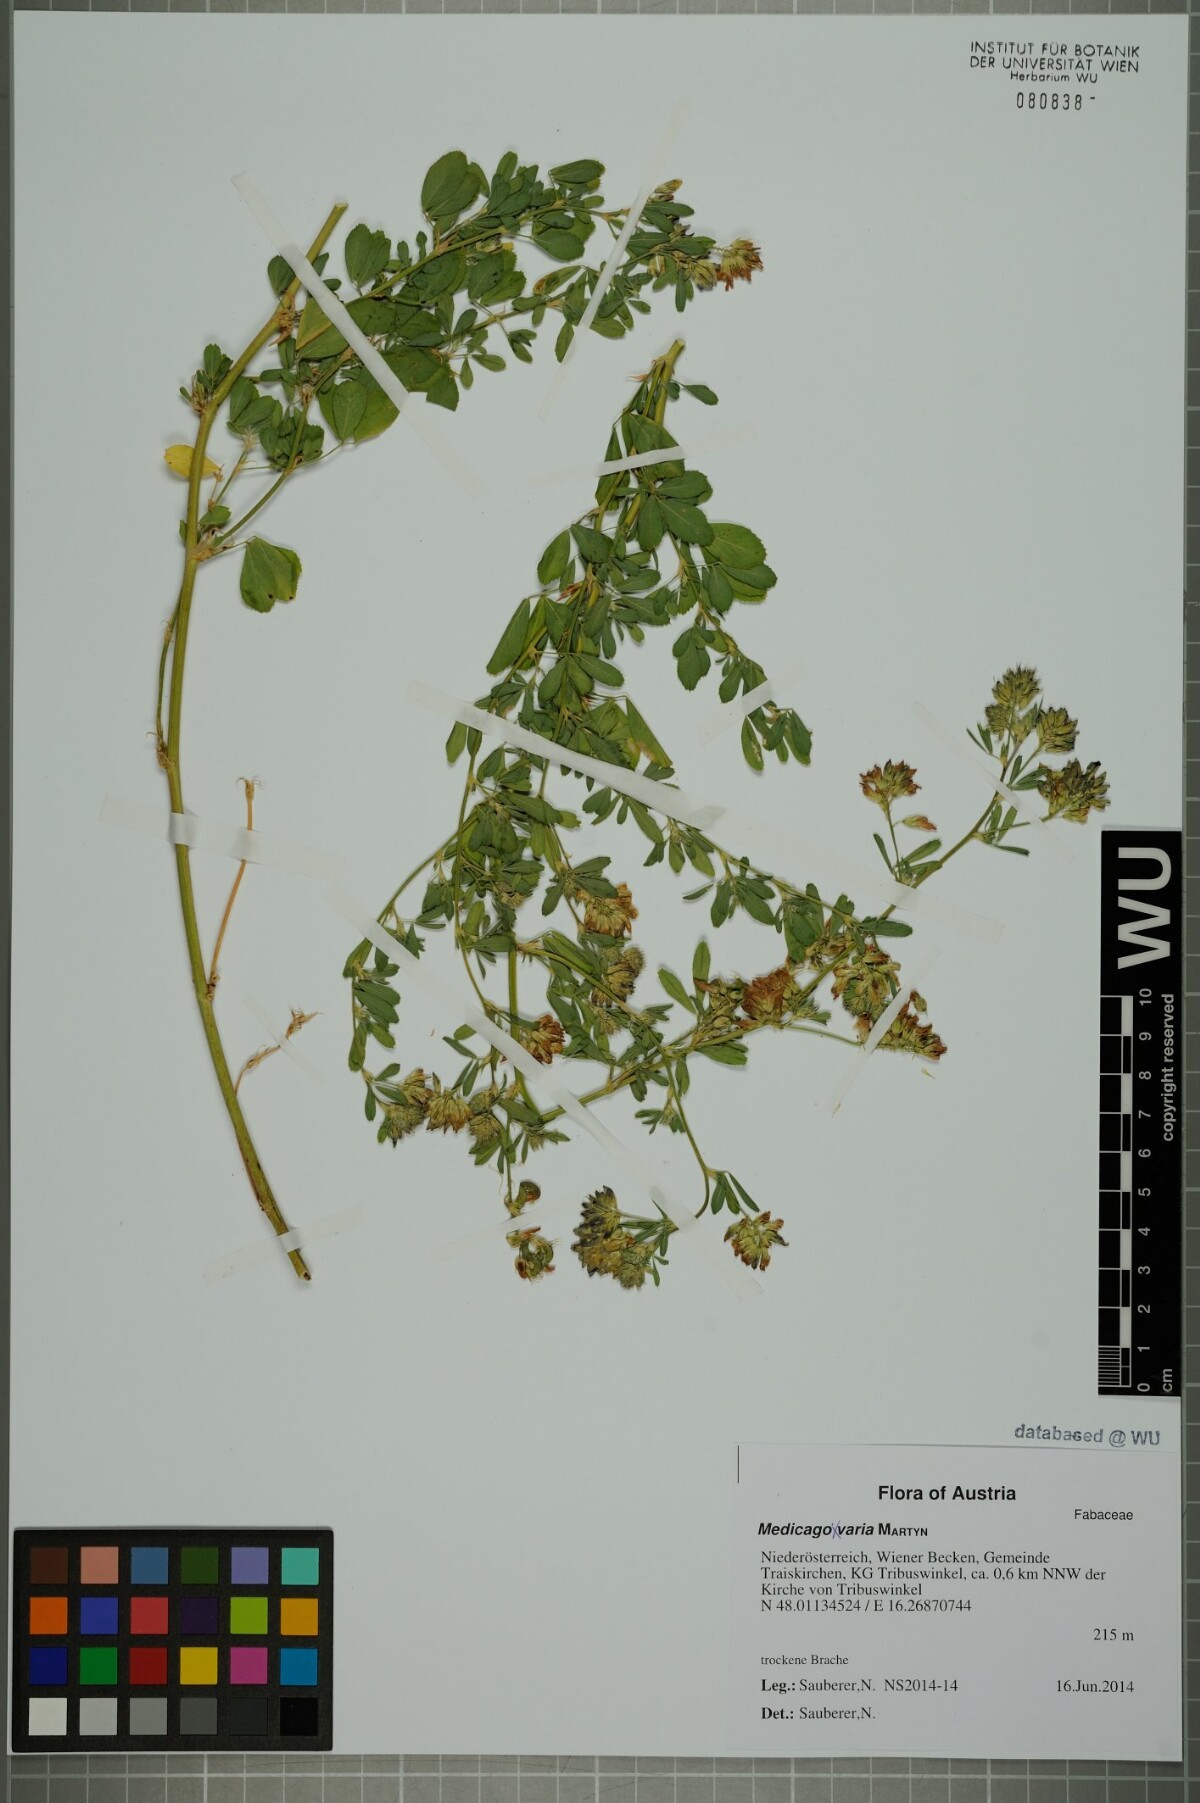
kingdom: Plantae
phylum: Tracheophyta
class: Magnoliopsida
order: Fabales
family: Fabaceae
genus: Medicago
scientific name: Medicago varia
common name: Sand lucerne
